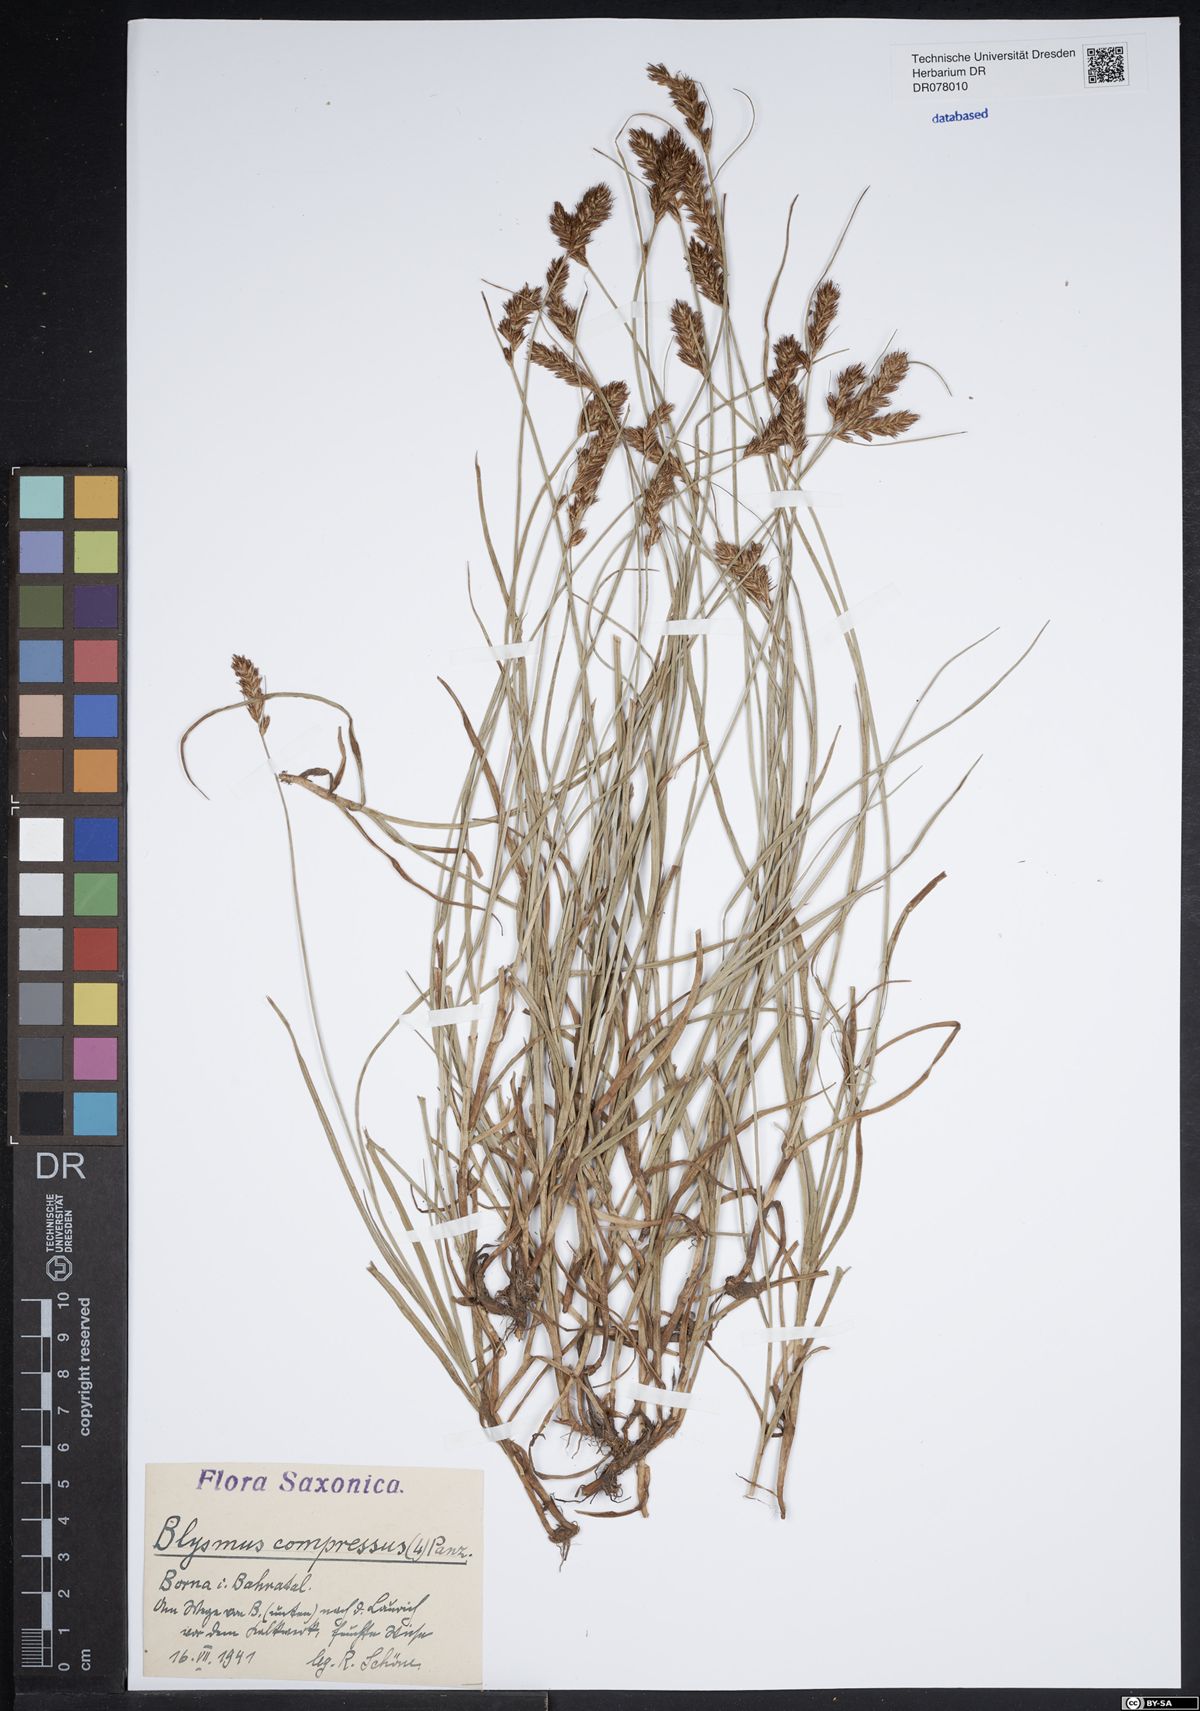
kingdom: Plantae
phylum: Tracheophyta
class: Liliopsida
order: Poales
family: Cyperaceae
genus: Blysmus
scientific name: Blysmus compressus
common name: Flat-sedge
